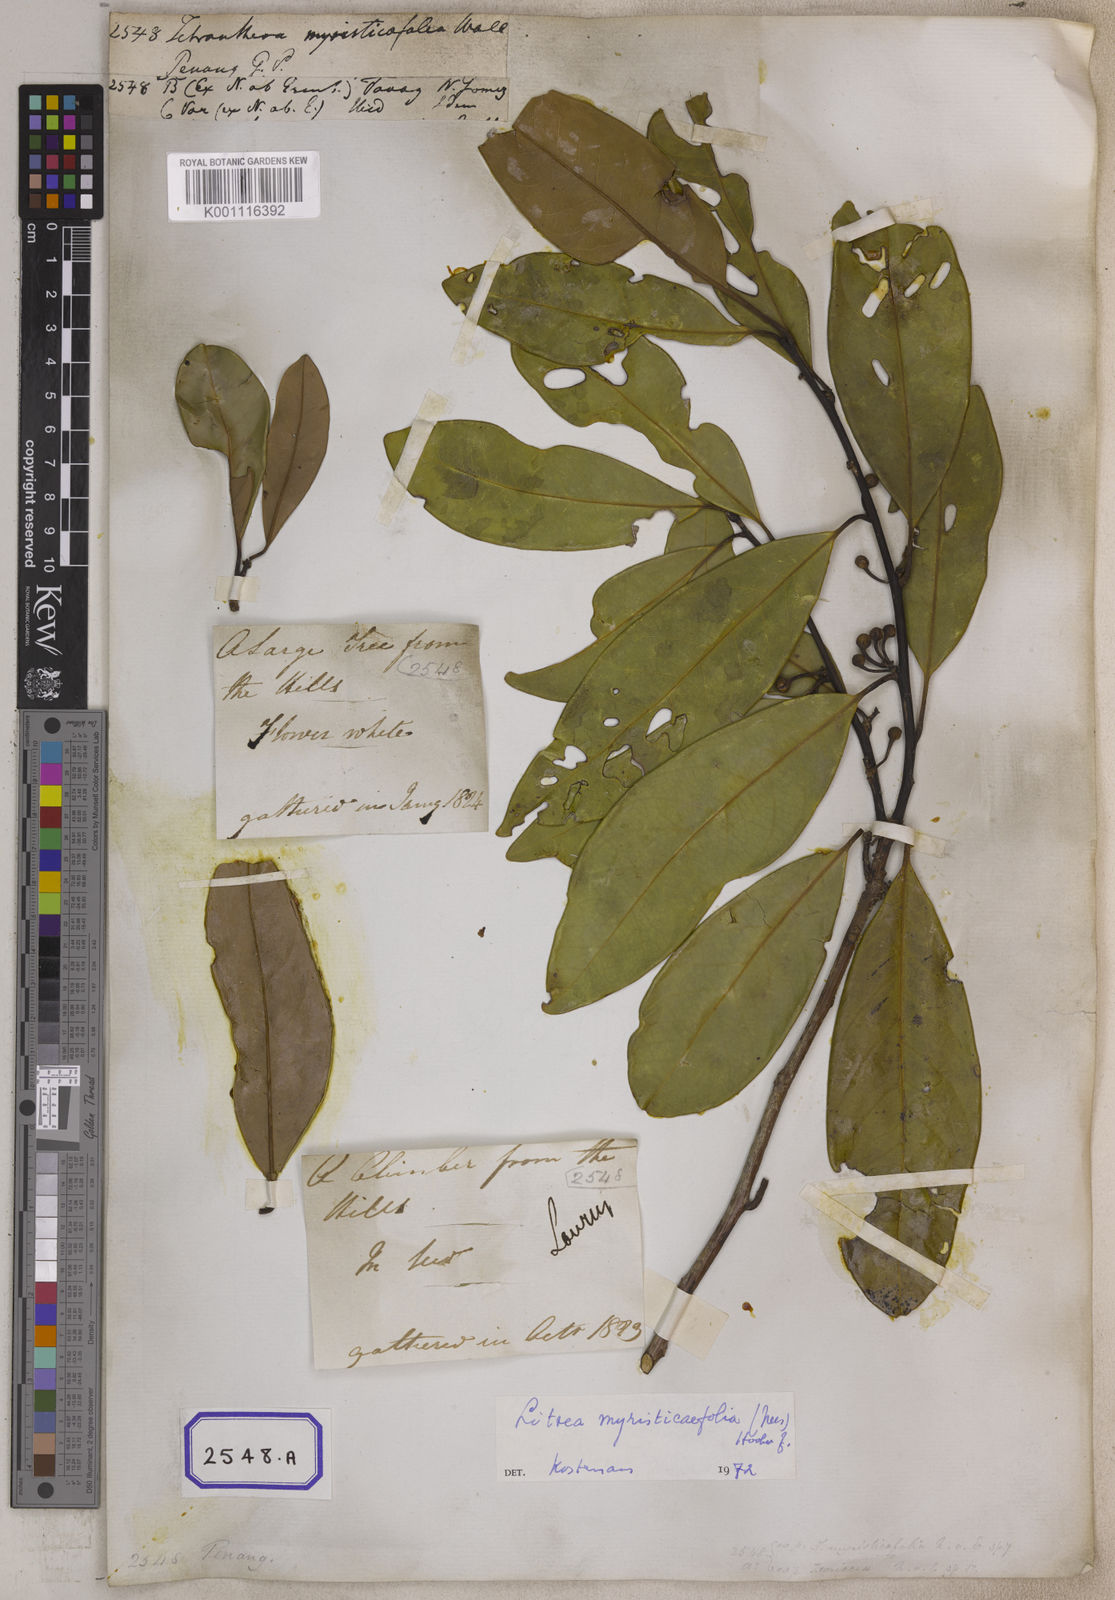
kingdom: Plantae
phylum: Tracheophyta
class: Magnoliopsida
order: Laurales
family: Lauraceae
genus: Litsea
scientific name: Litsea
